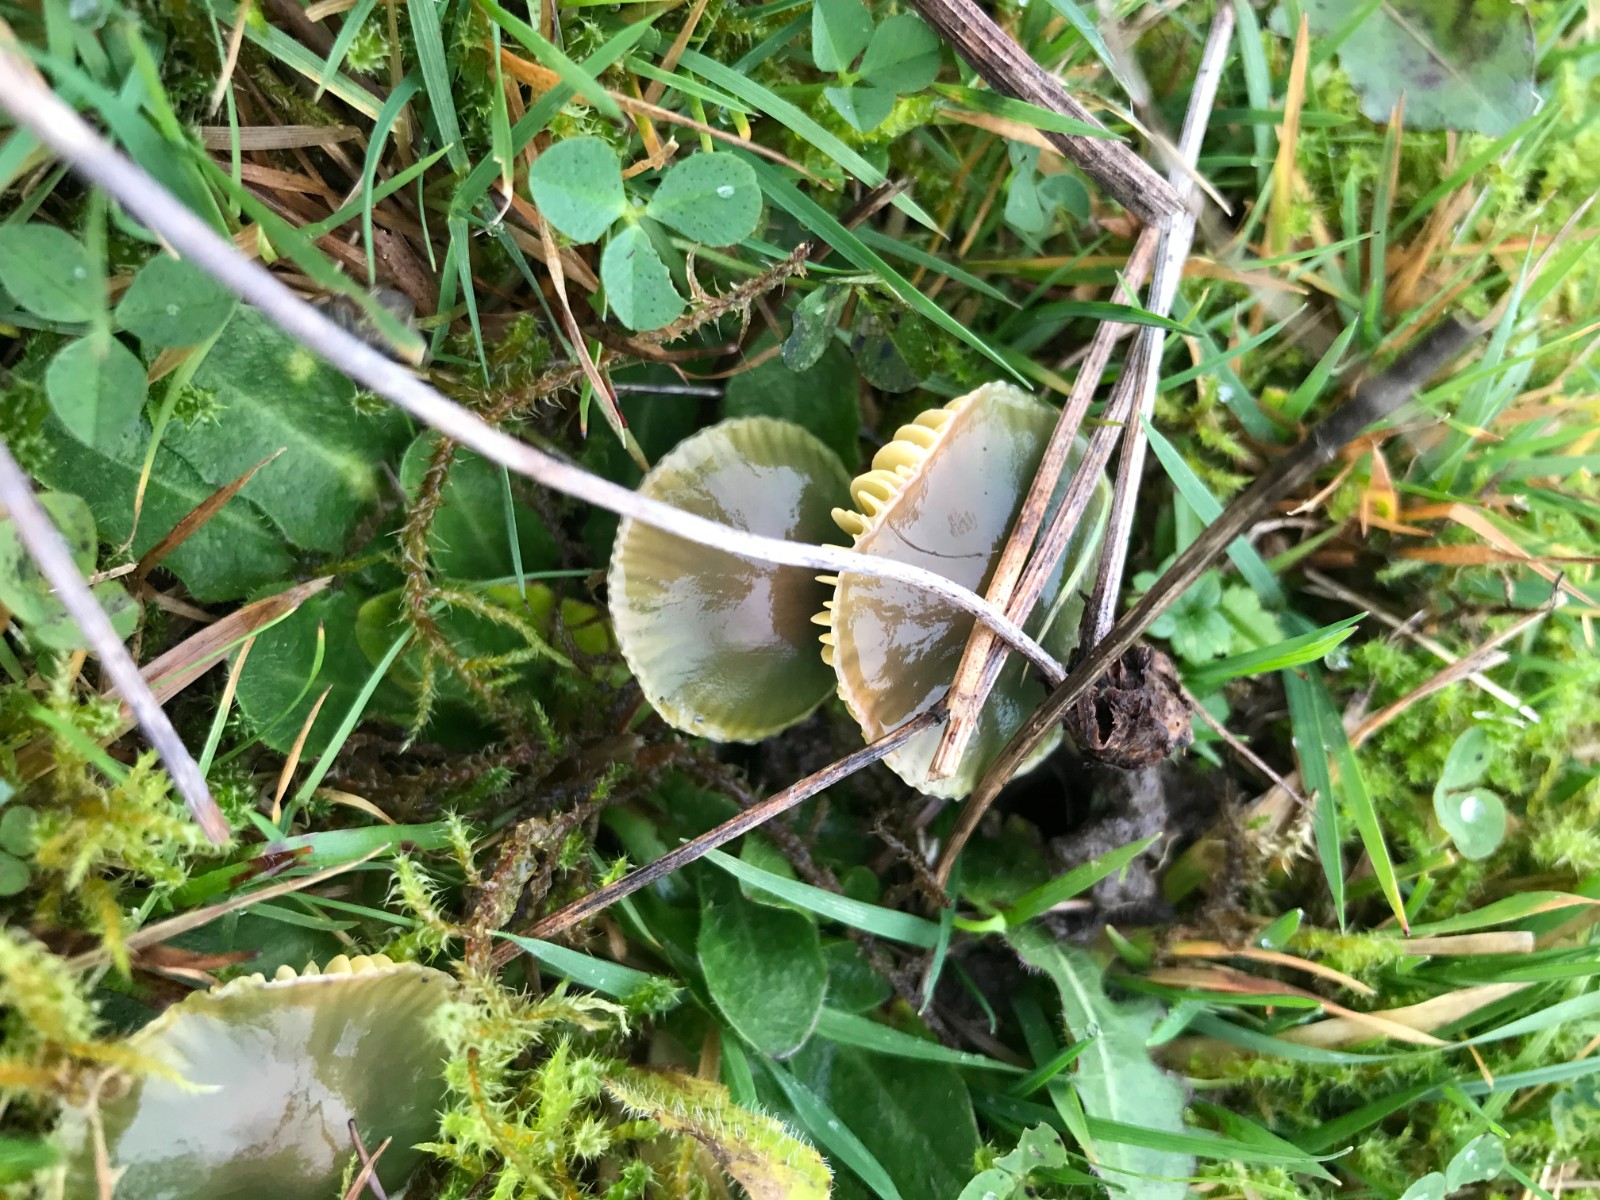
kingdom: Fungi
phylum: Basidiomycota
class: Agaricomycetes
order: Agaricales
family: Hygrophoraceae
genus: Gliophorus
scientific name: Gliophorus psittacinus
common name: papegøje-vokshat
